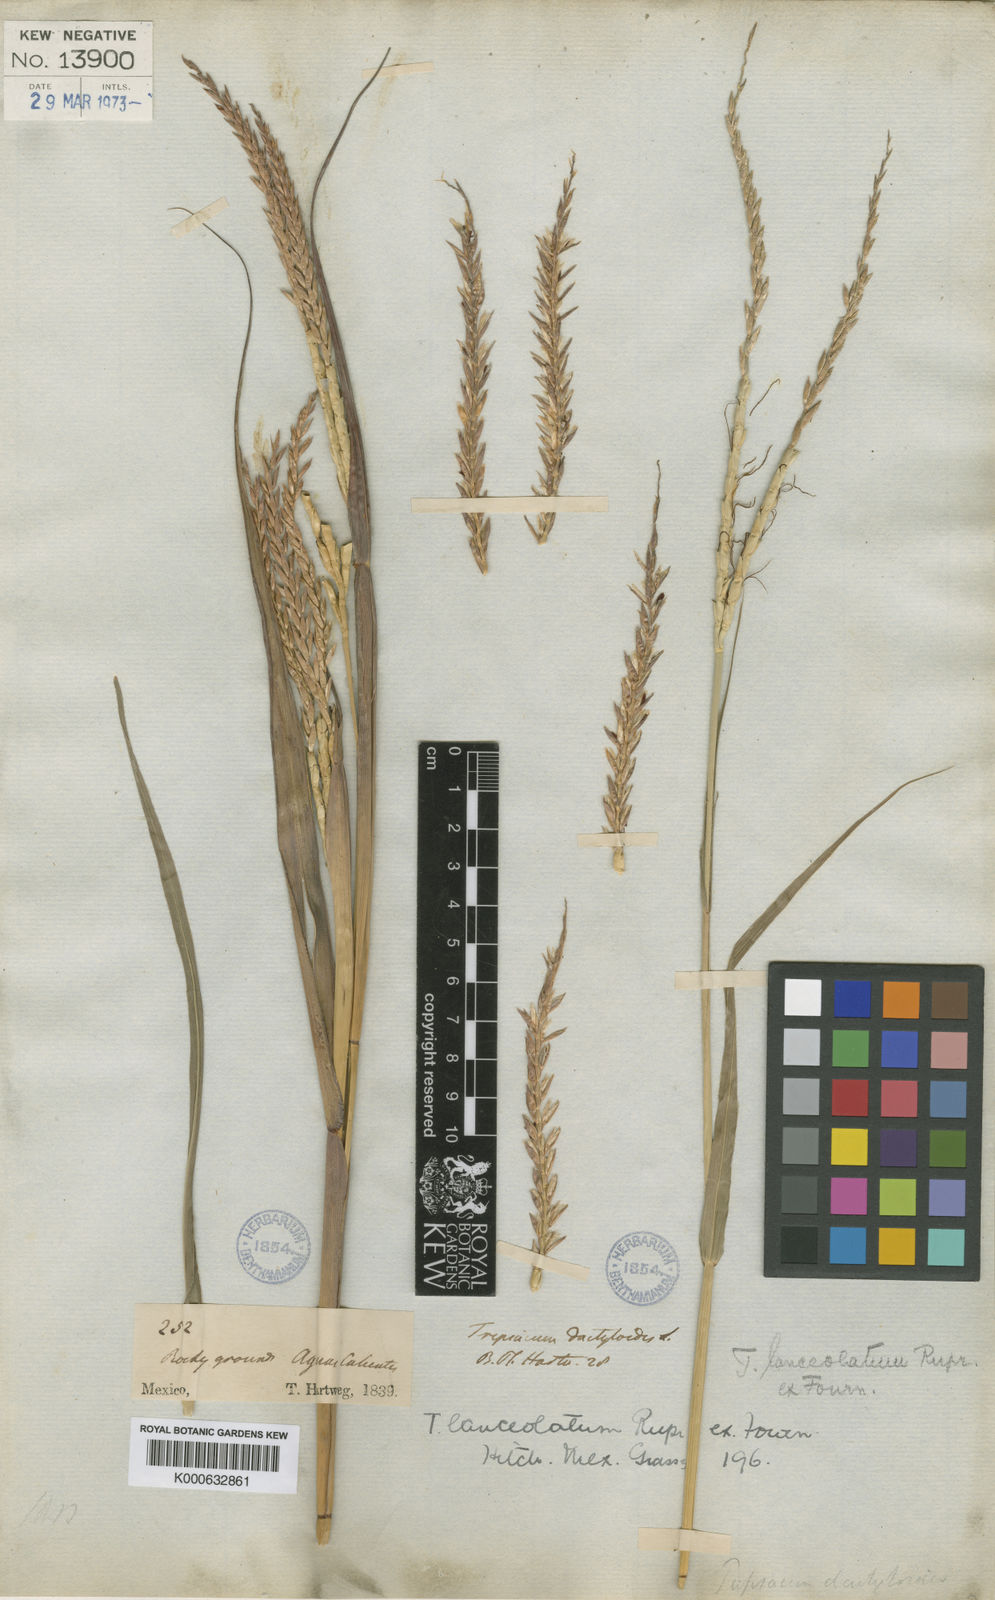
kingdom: Plantae
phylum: Tracheophyta
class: Liliopsida
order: Poales
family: Poaceae
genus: Tripsacum
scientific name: Tripsacum lanceolatum
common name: Mexican gama grass
